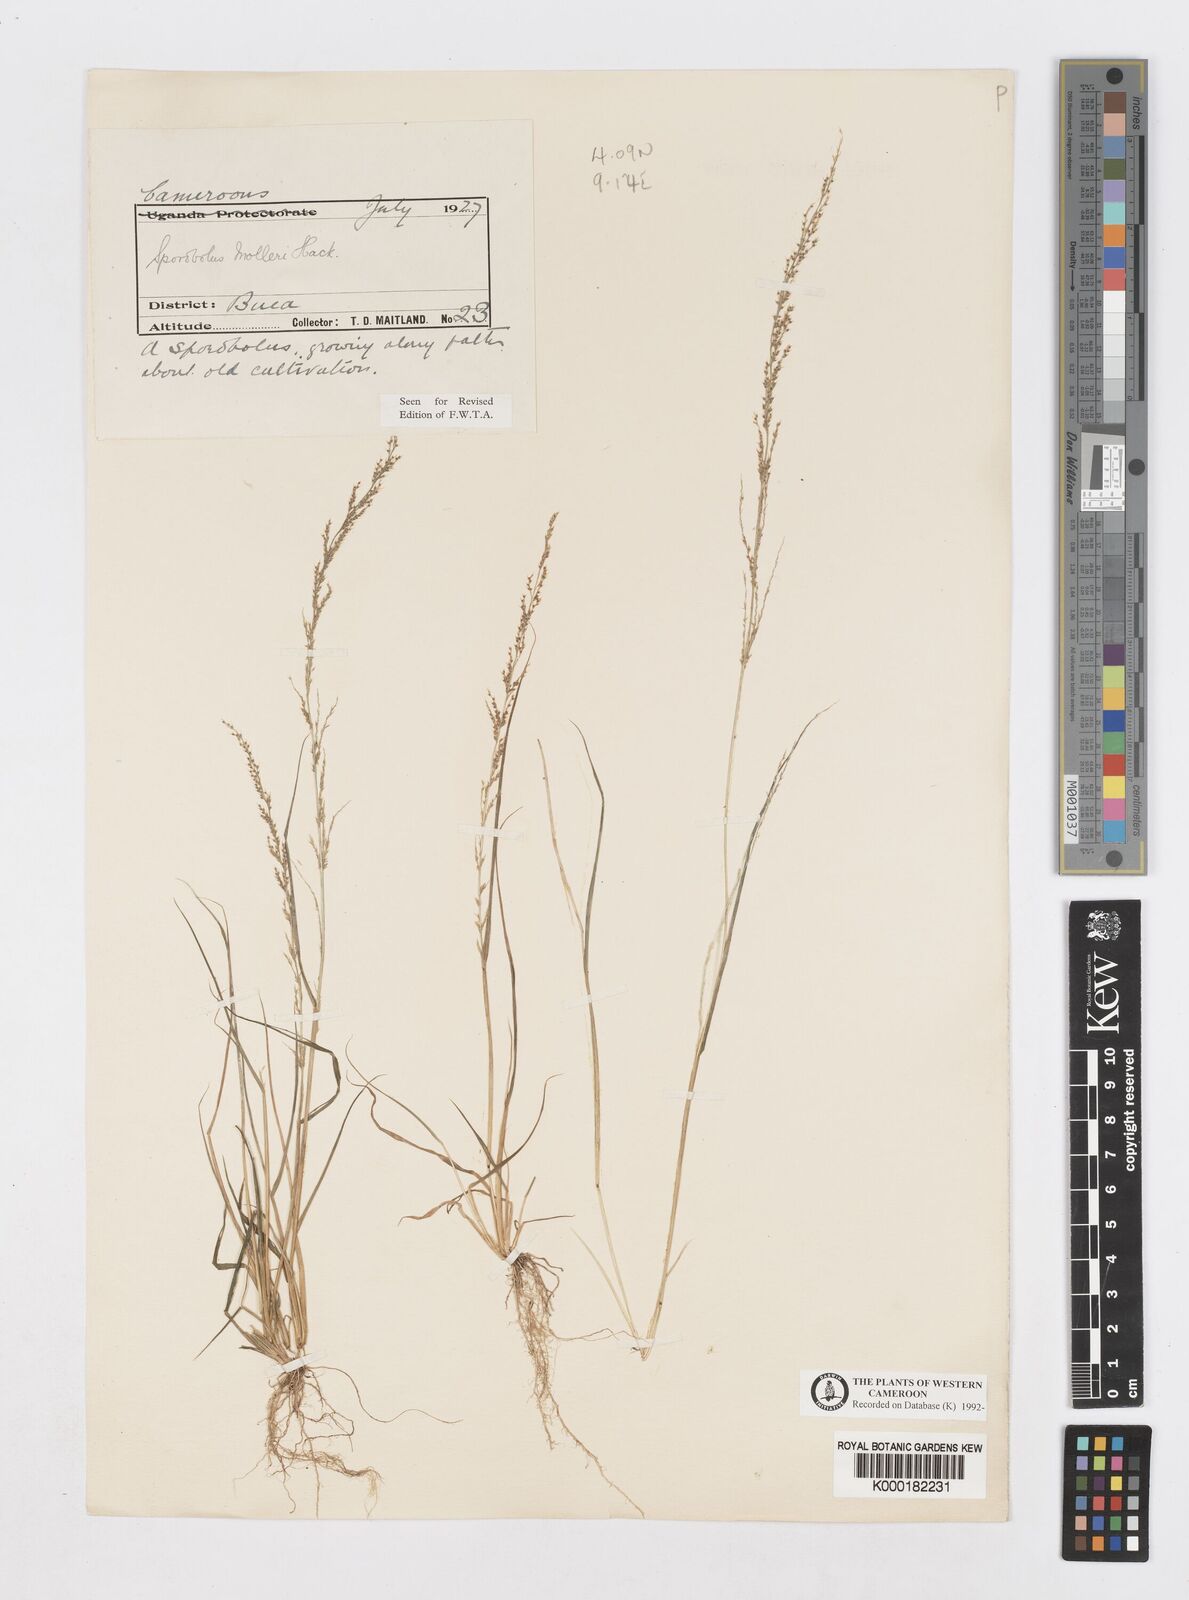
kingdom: Plantae
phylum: Tracheophyta
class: Liliopsida
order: Poales
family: Poaceae
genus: Sporobolus
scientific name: Sporobolus molleri
